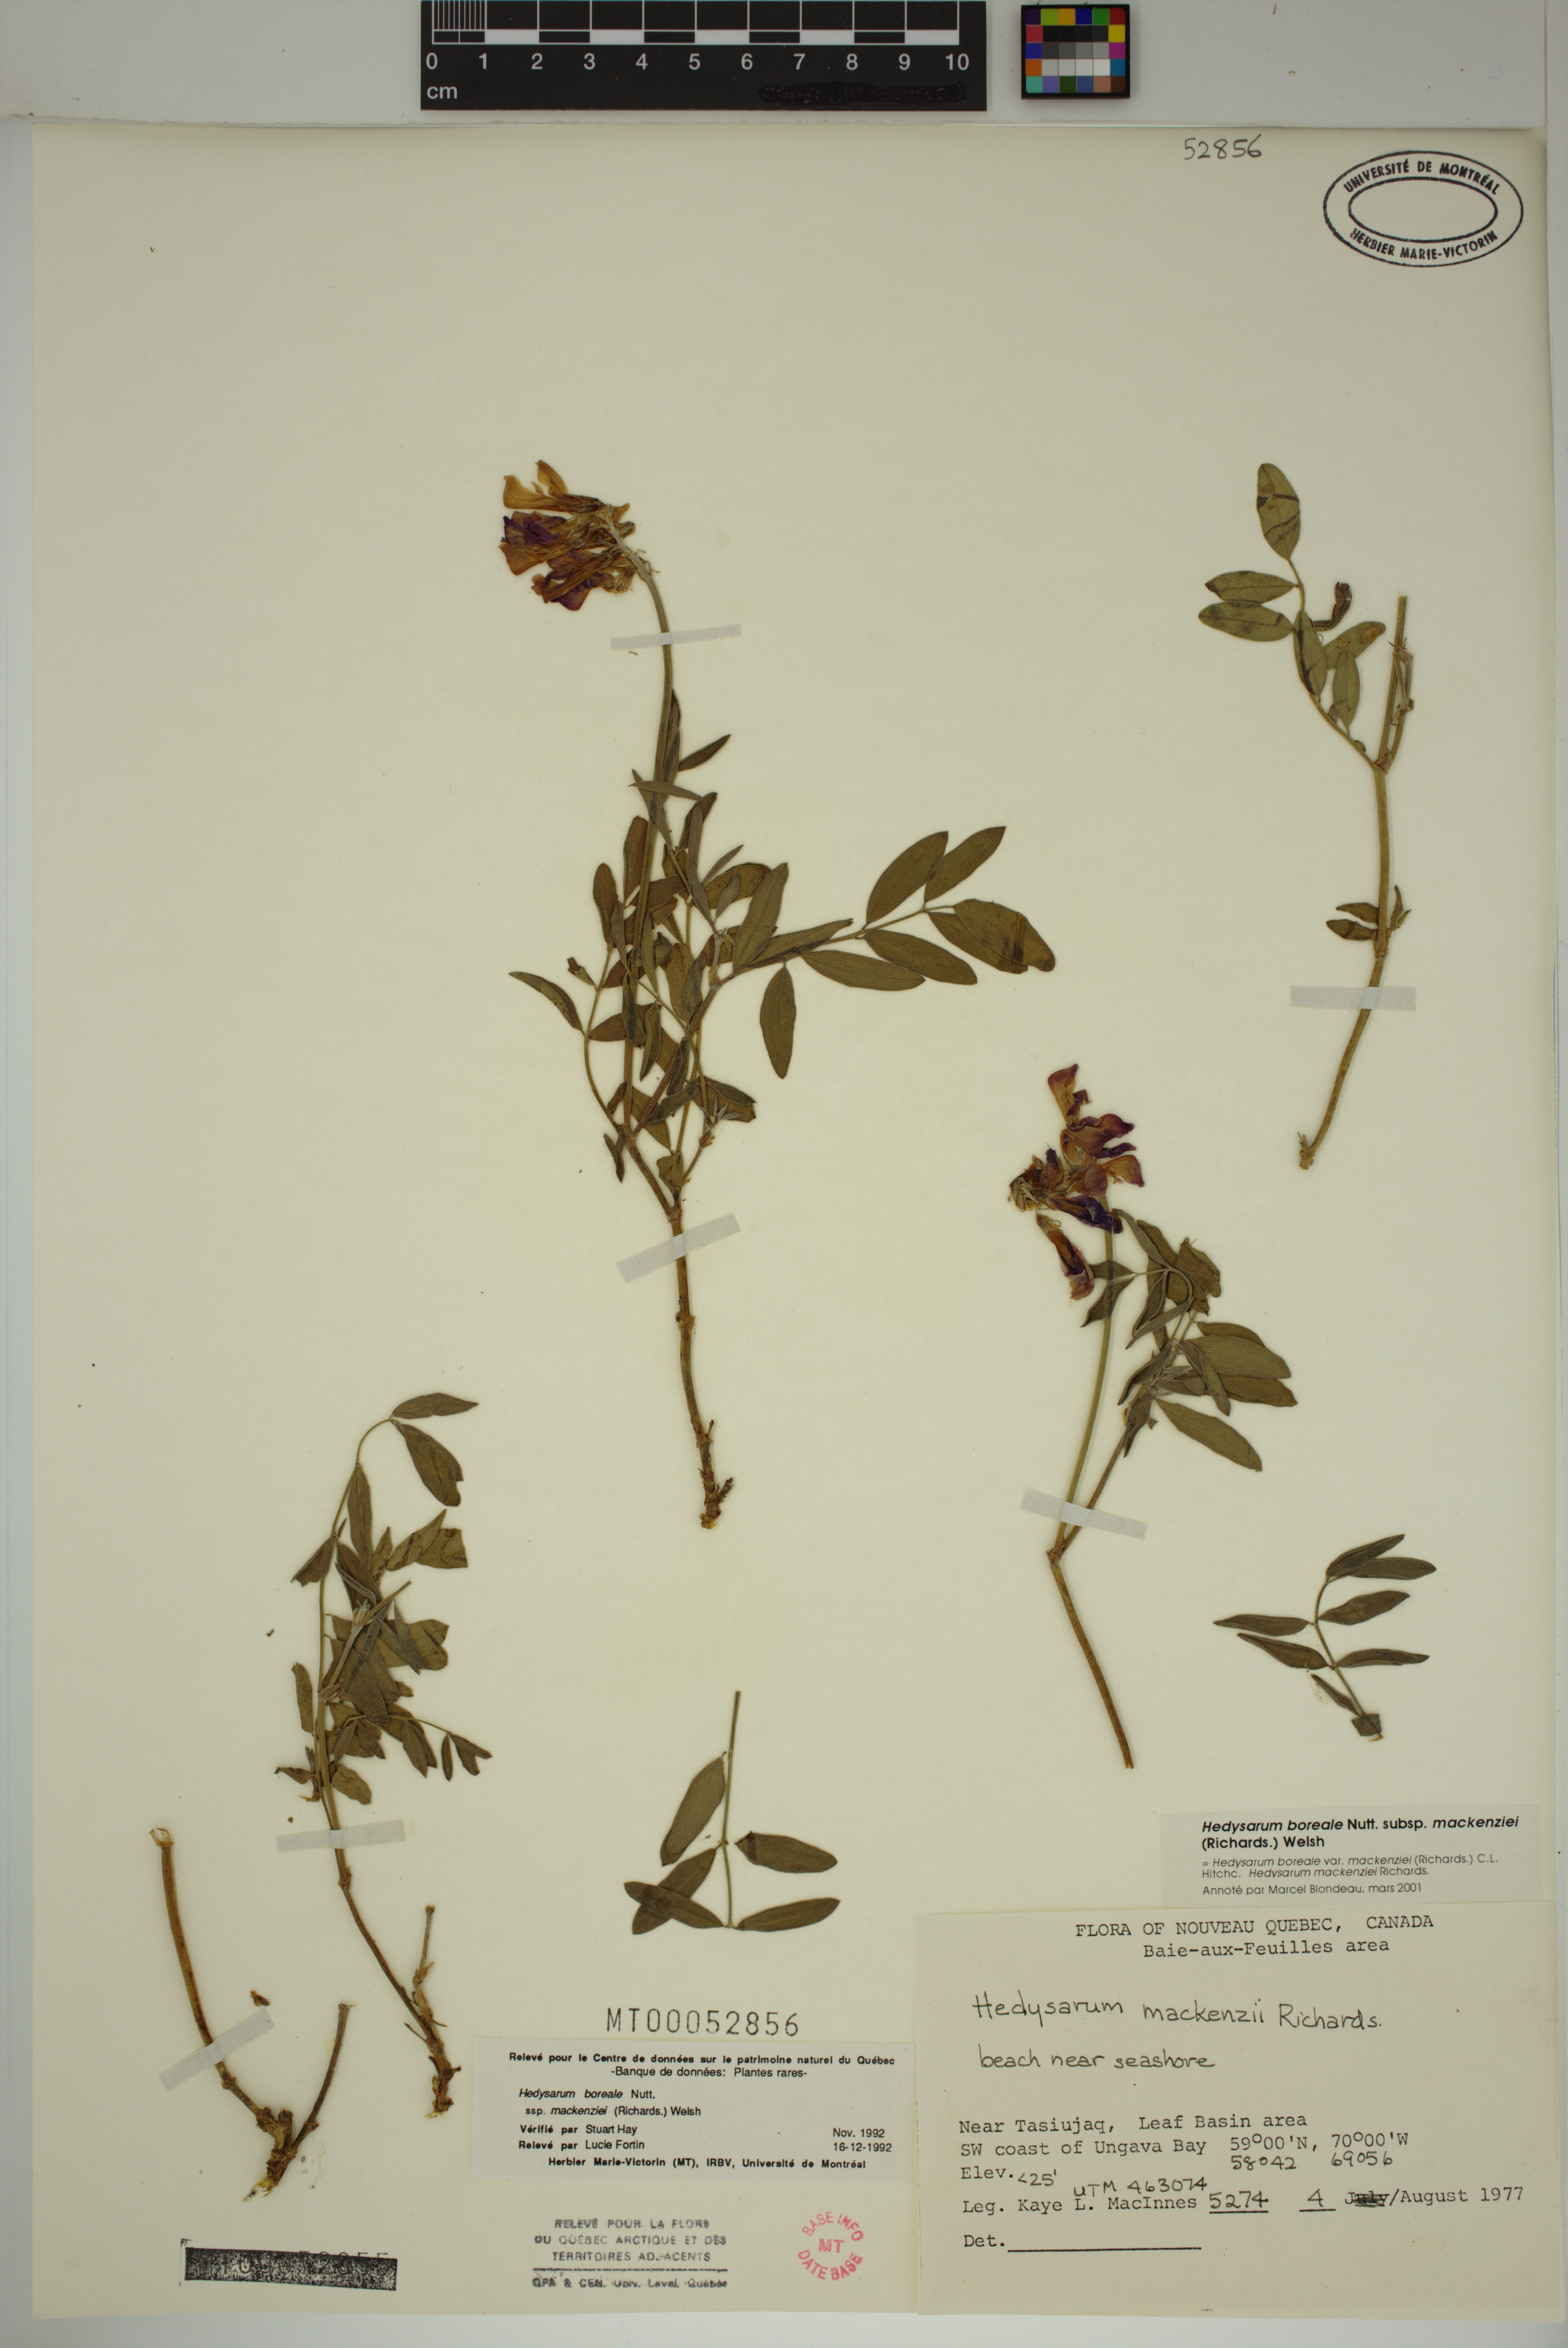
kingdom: Plantae
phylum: Tracheophyta
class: Magnoliopsida
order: Fabales
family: Fabaceae
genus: Hedysarum
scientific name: Hedysarum boreale
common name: Northern sweet-vetch
